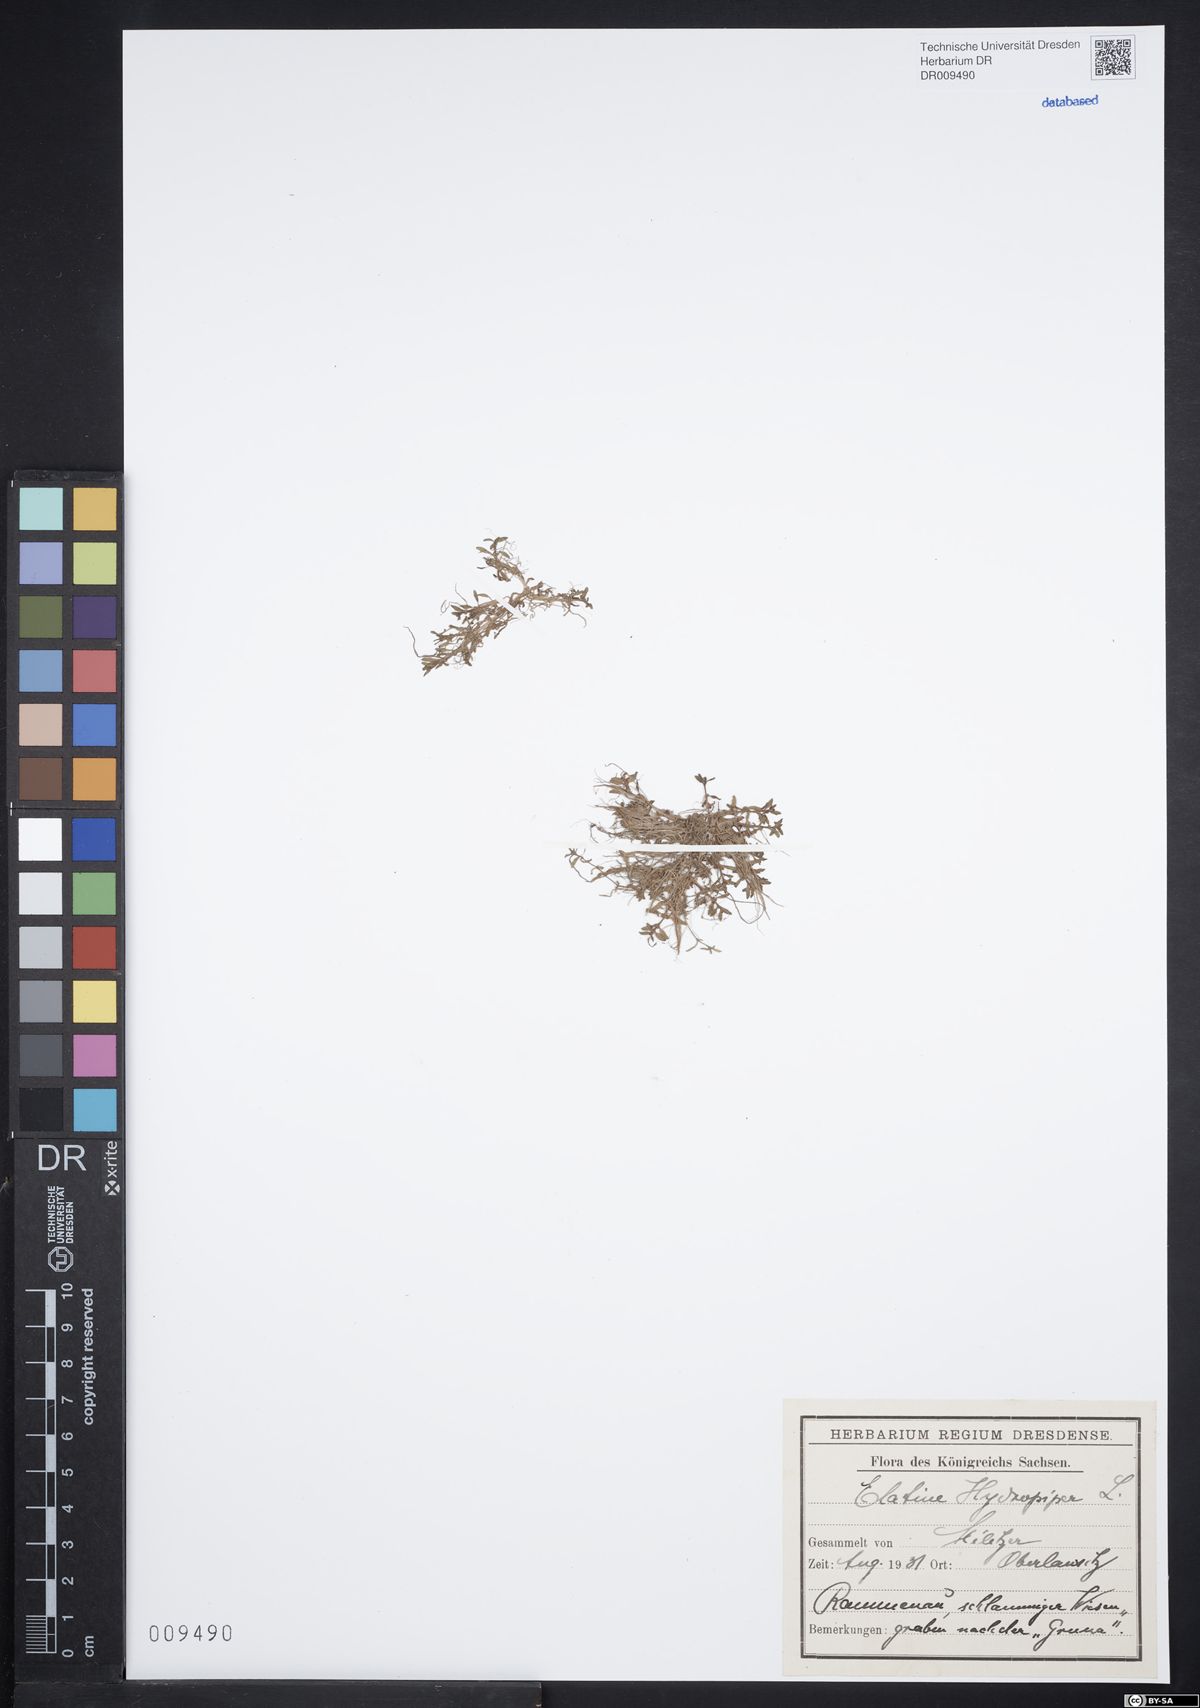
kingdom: Plantae
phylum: Tracheophyta
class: Magnoliopsida
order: Malpighiales
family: Elatinaceae
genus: Elatine
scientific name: Elatine hydropiper
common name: Eight-stamened waterwort
